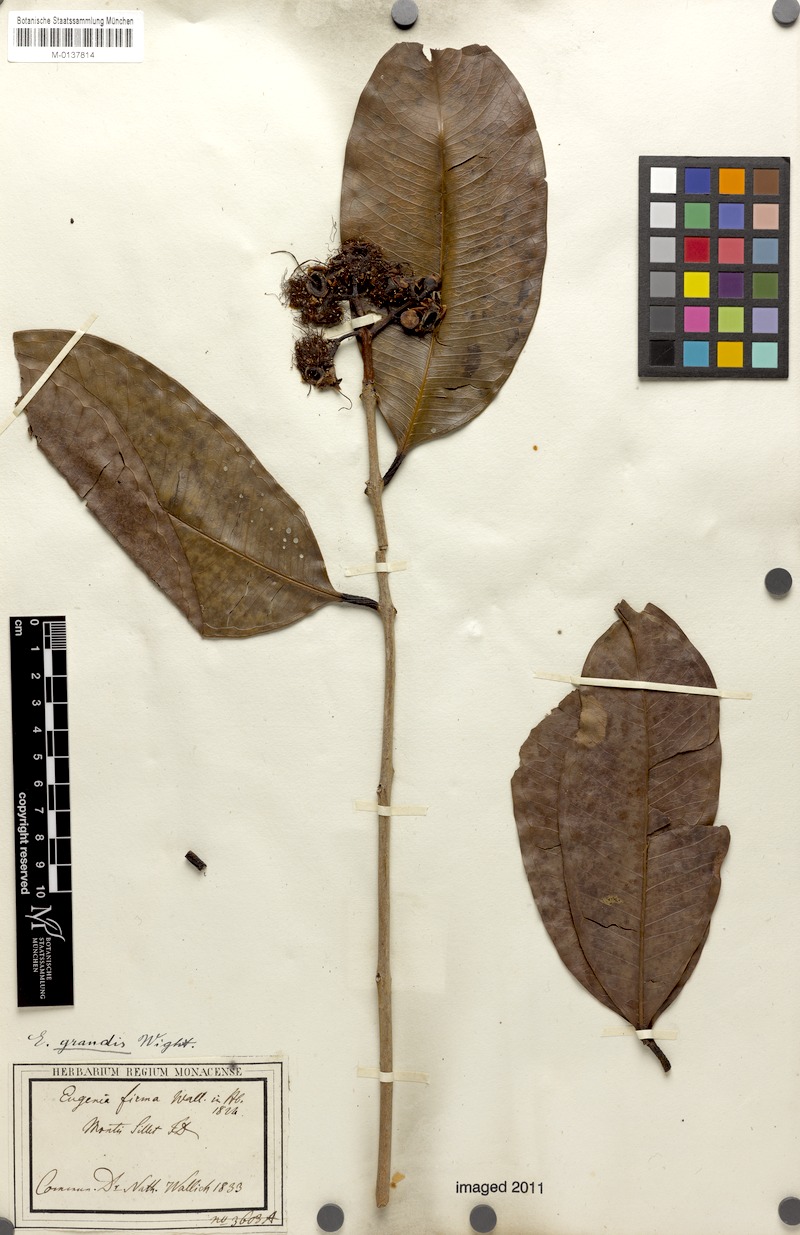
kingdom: Plantae
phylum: Tracheophyta
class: Magnoliopsida
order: Myrtales
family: Myrtaceae
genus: Syzygium
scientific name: Syzygium grande
